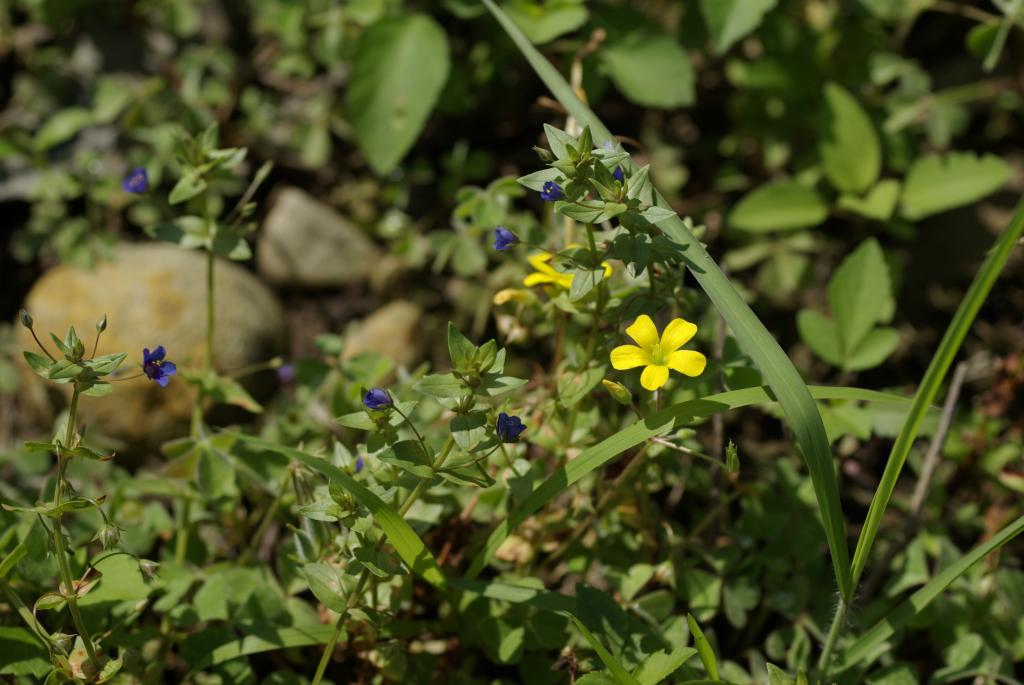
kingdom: Plantae
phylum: Tracheophyta
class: Magnoliopsida
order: Oxalidales
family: Oxalidaceae
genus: Oxalis
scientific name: Oxalis corniculata
